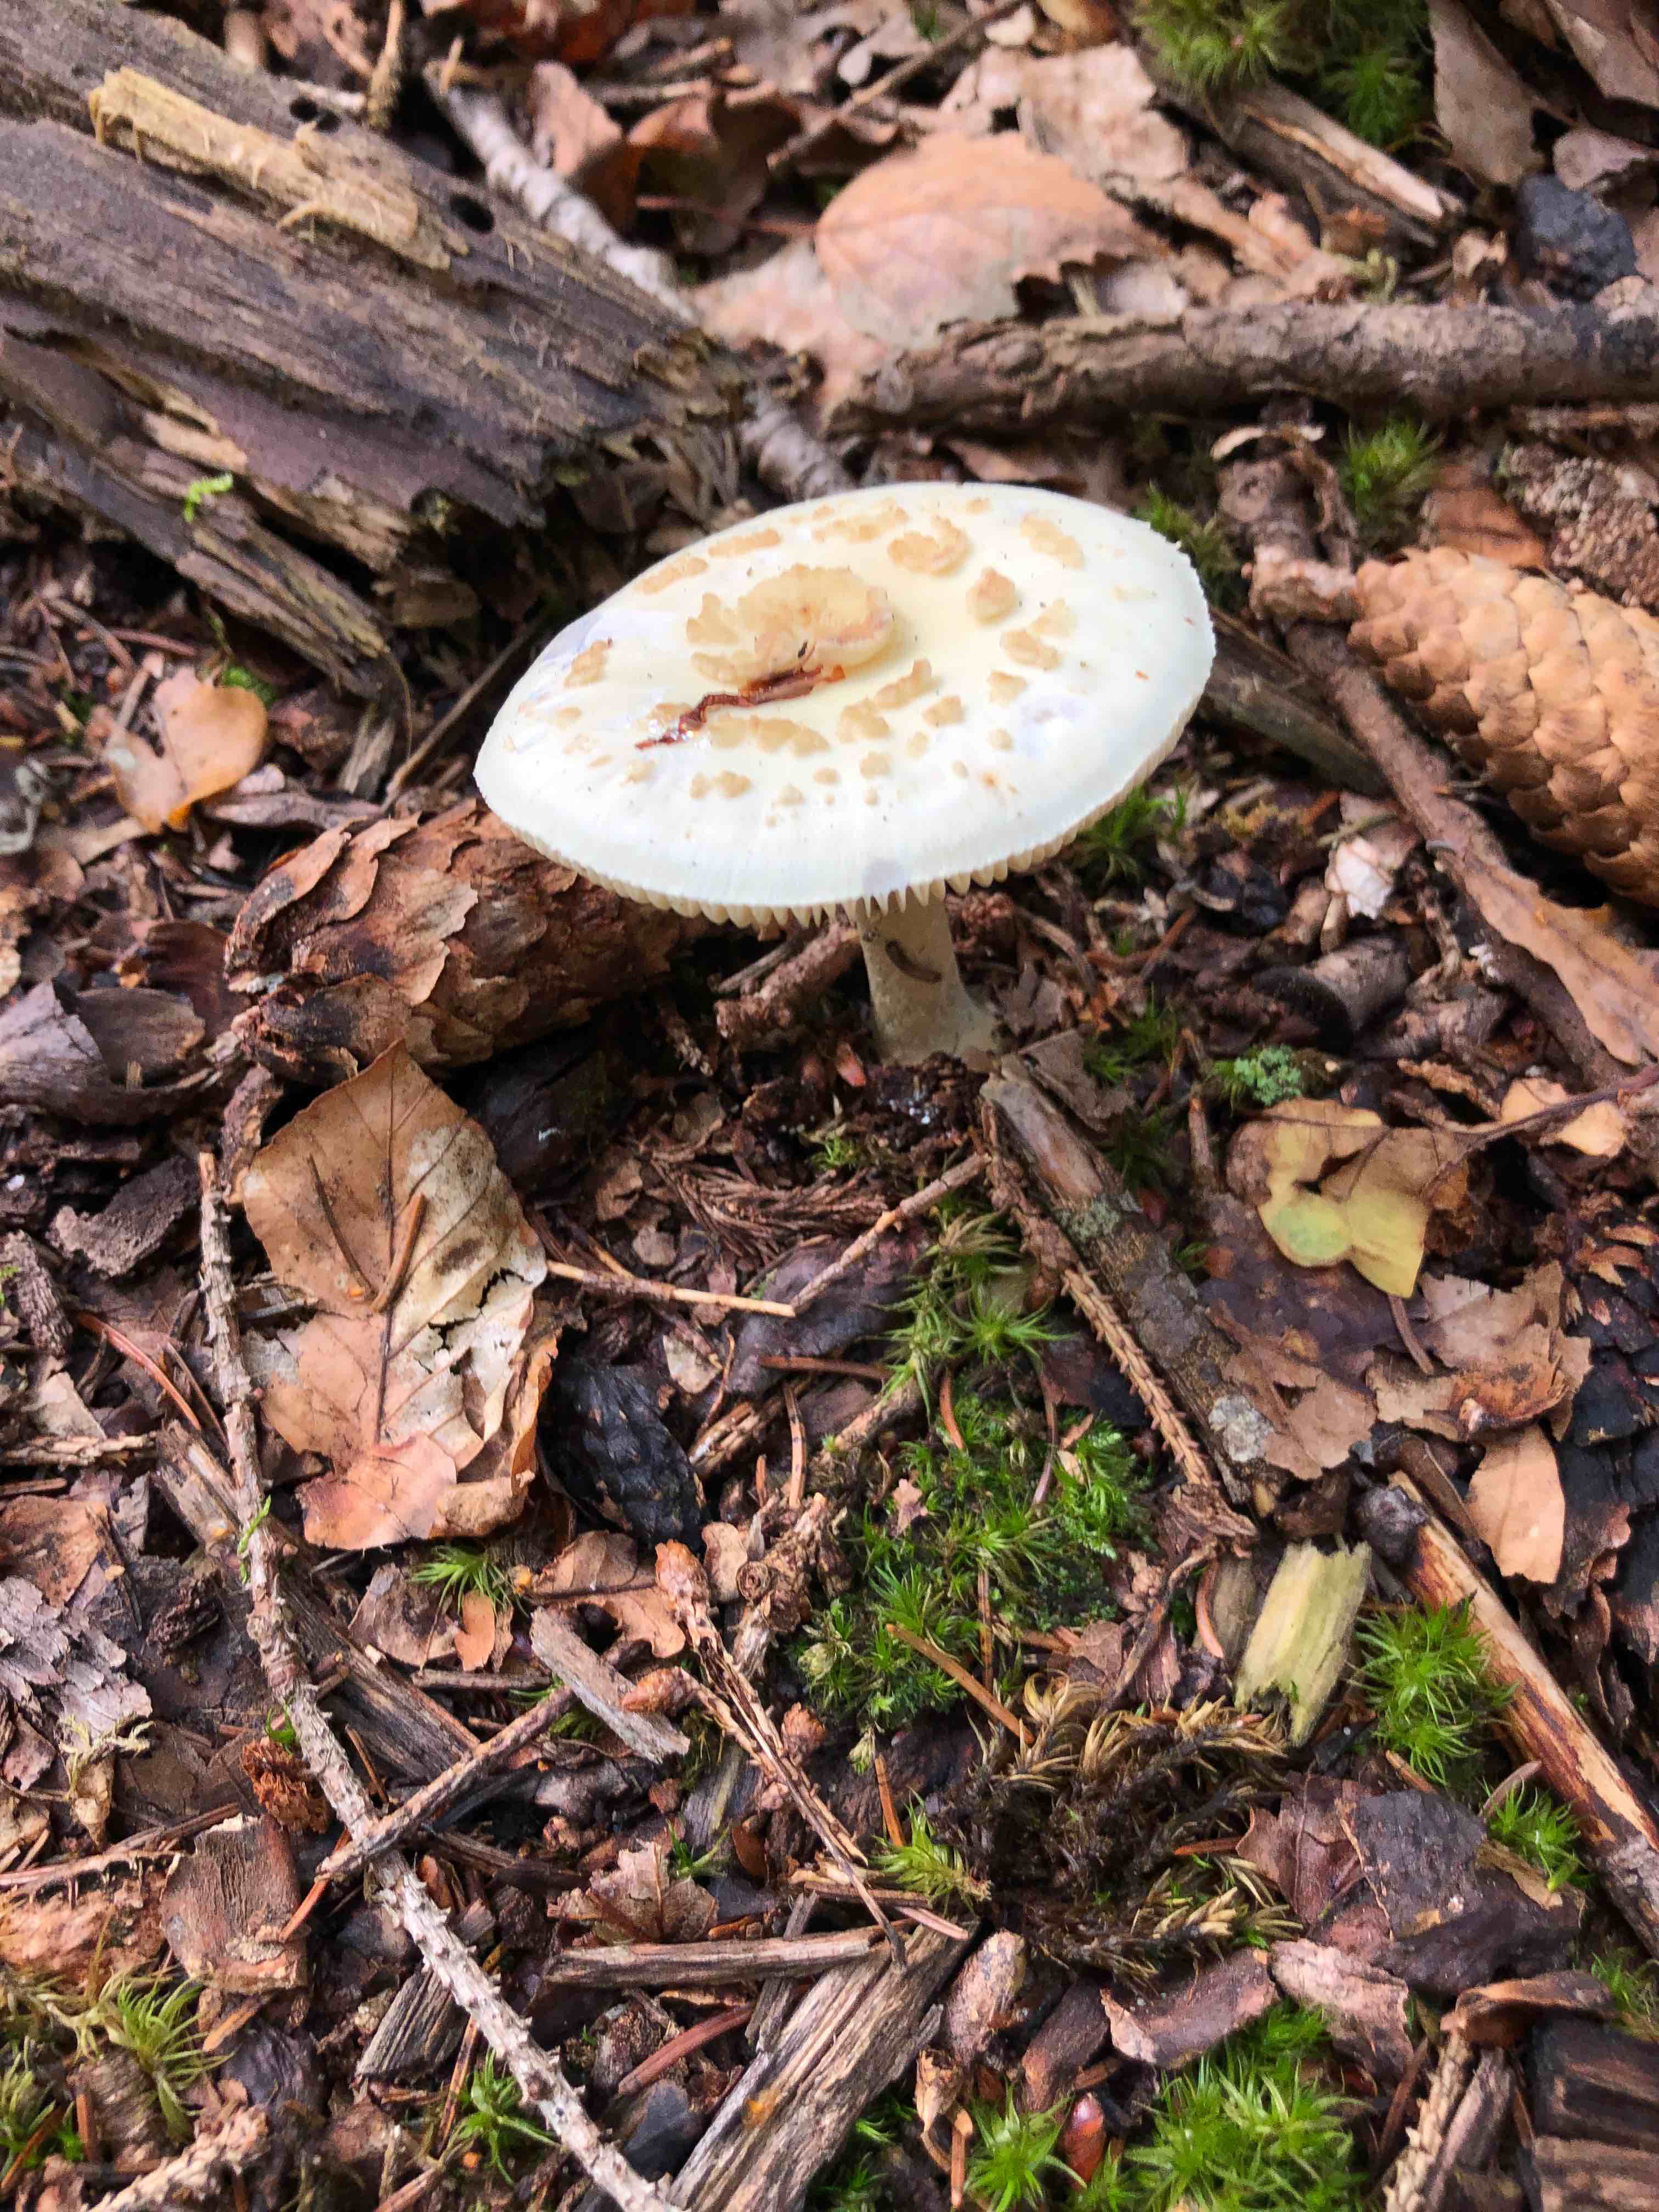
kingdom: Fungi
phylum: Basidiomycota
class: Agaricomycetes
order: Agaricales
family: Amanitaceae
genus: Amanita
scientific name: Amanita citrina
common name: kugleknoldet fluesvamp
